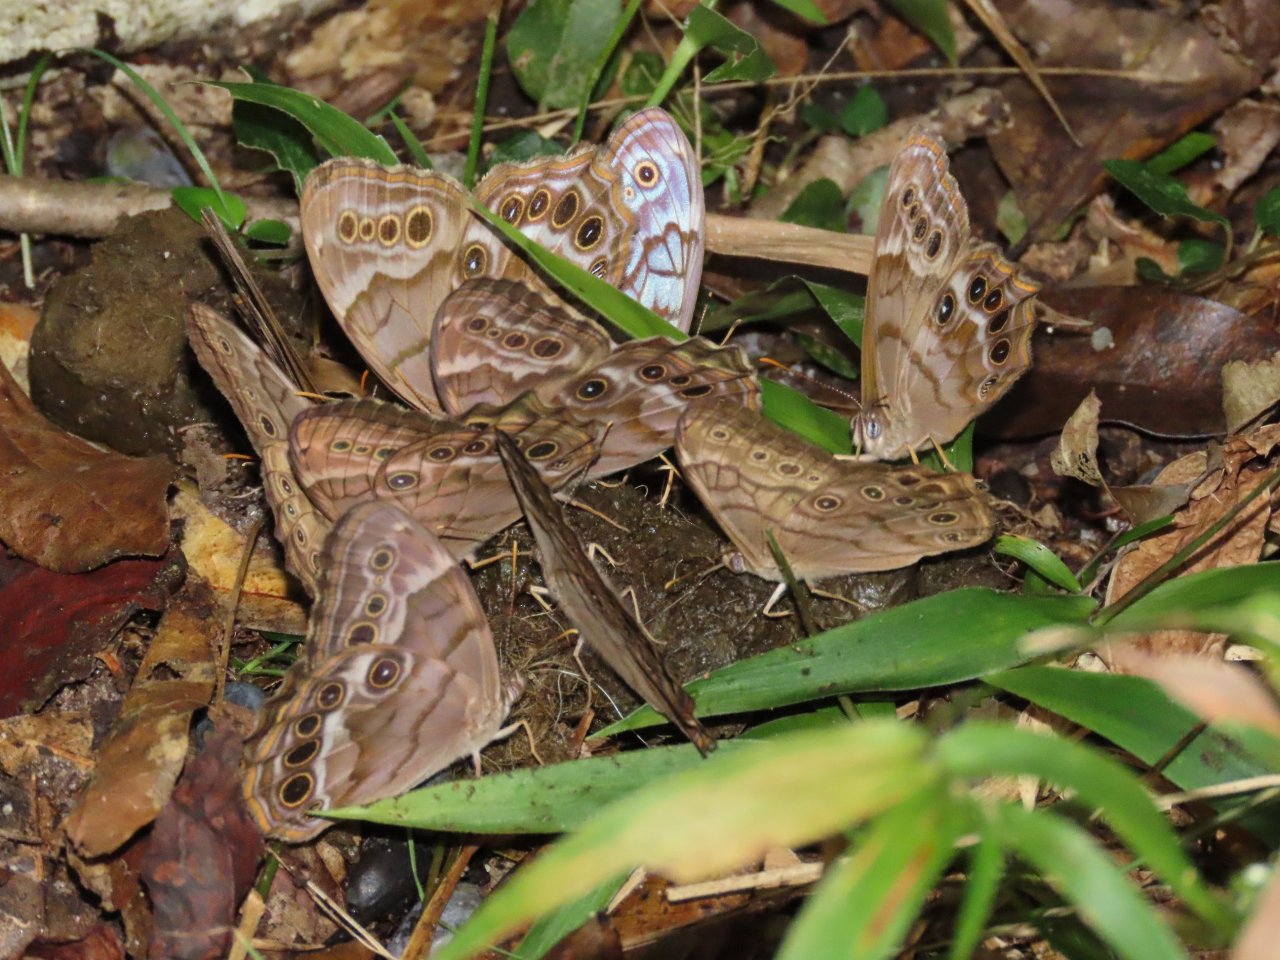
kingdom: Animalia
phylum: Arthropoda
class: Insecta
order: Lepidoptera
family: Nymphalidae
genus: Enodia
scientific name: Enodia portlandia
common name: Southern Pearly Eye
